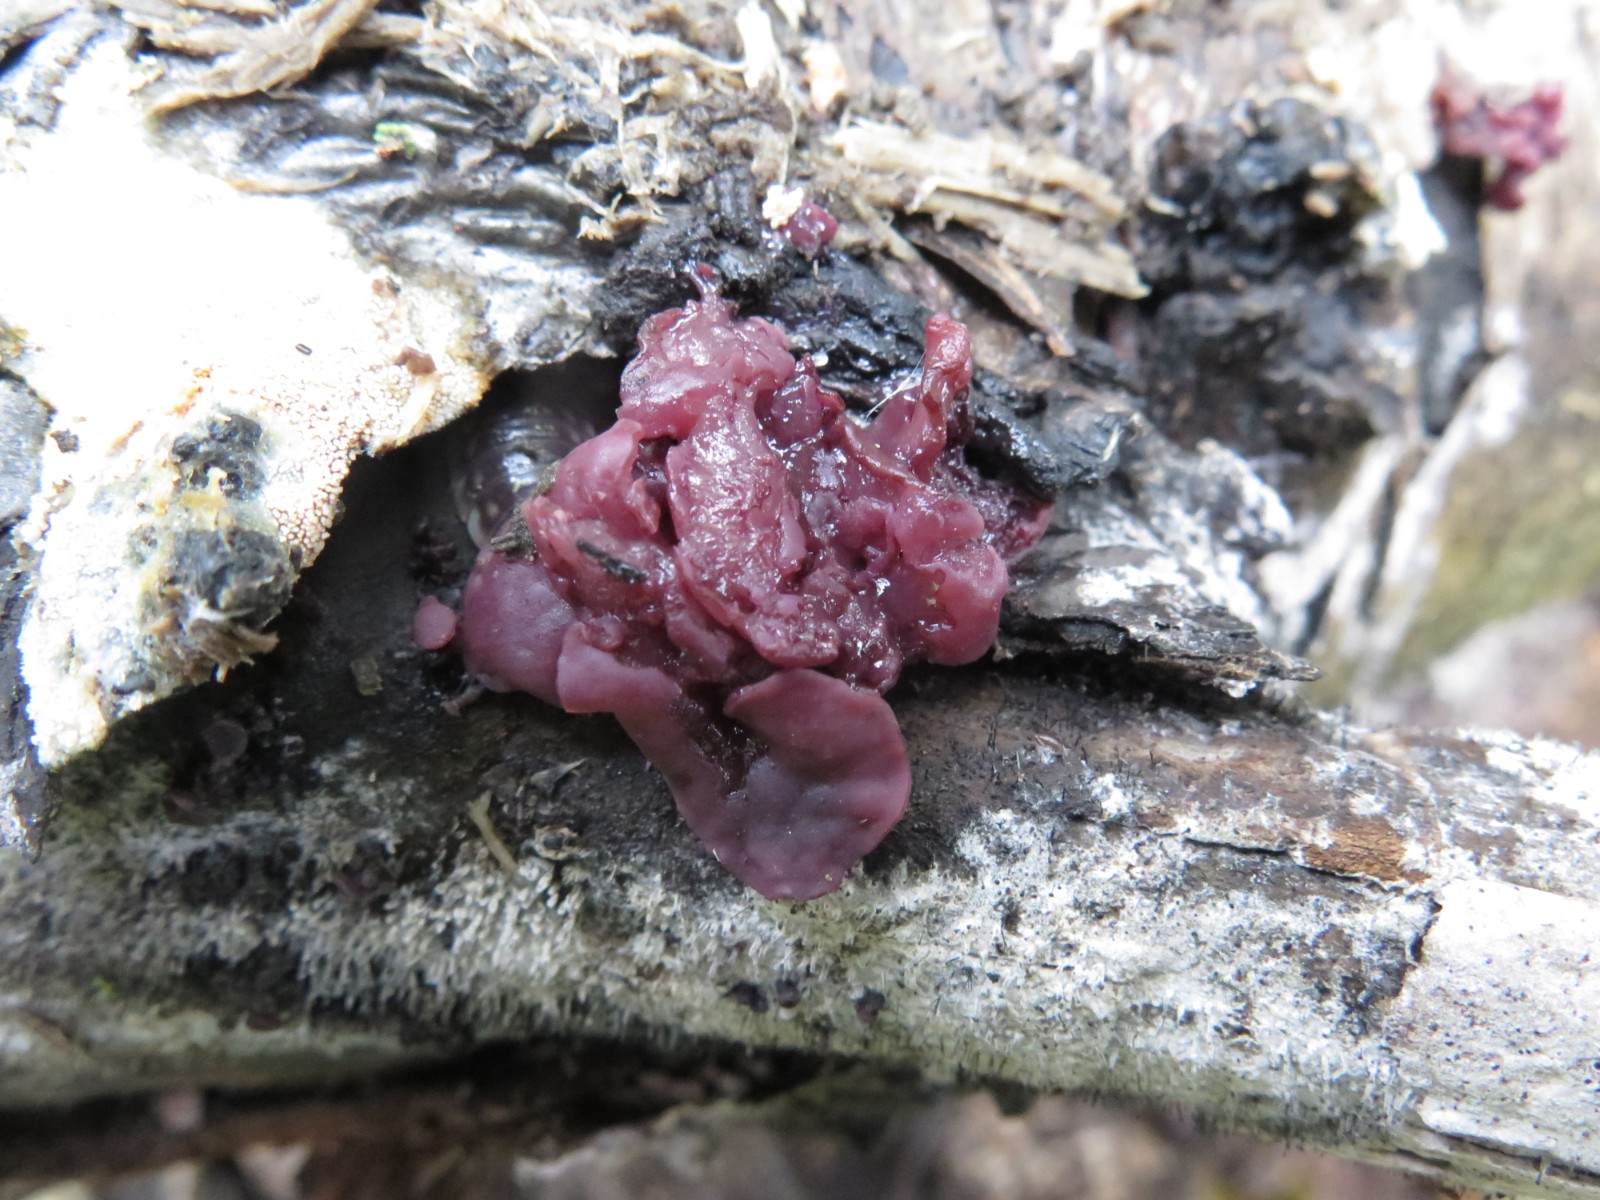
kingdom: Fungi
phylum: Ascomycota
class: Leotiomycetes
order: Helotiales
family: Gelatinodiscaceae
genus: Ascocoryne
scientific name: Ascocoryne sarcoides
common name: rødlilla sejskive
